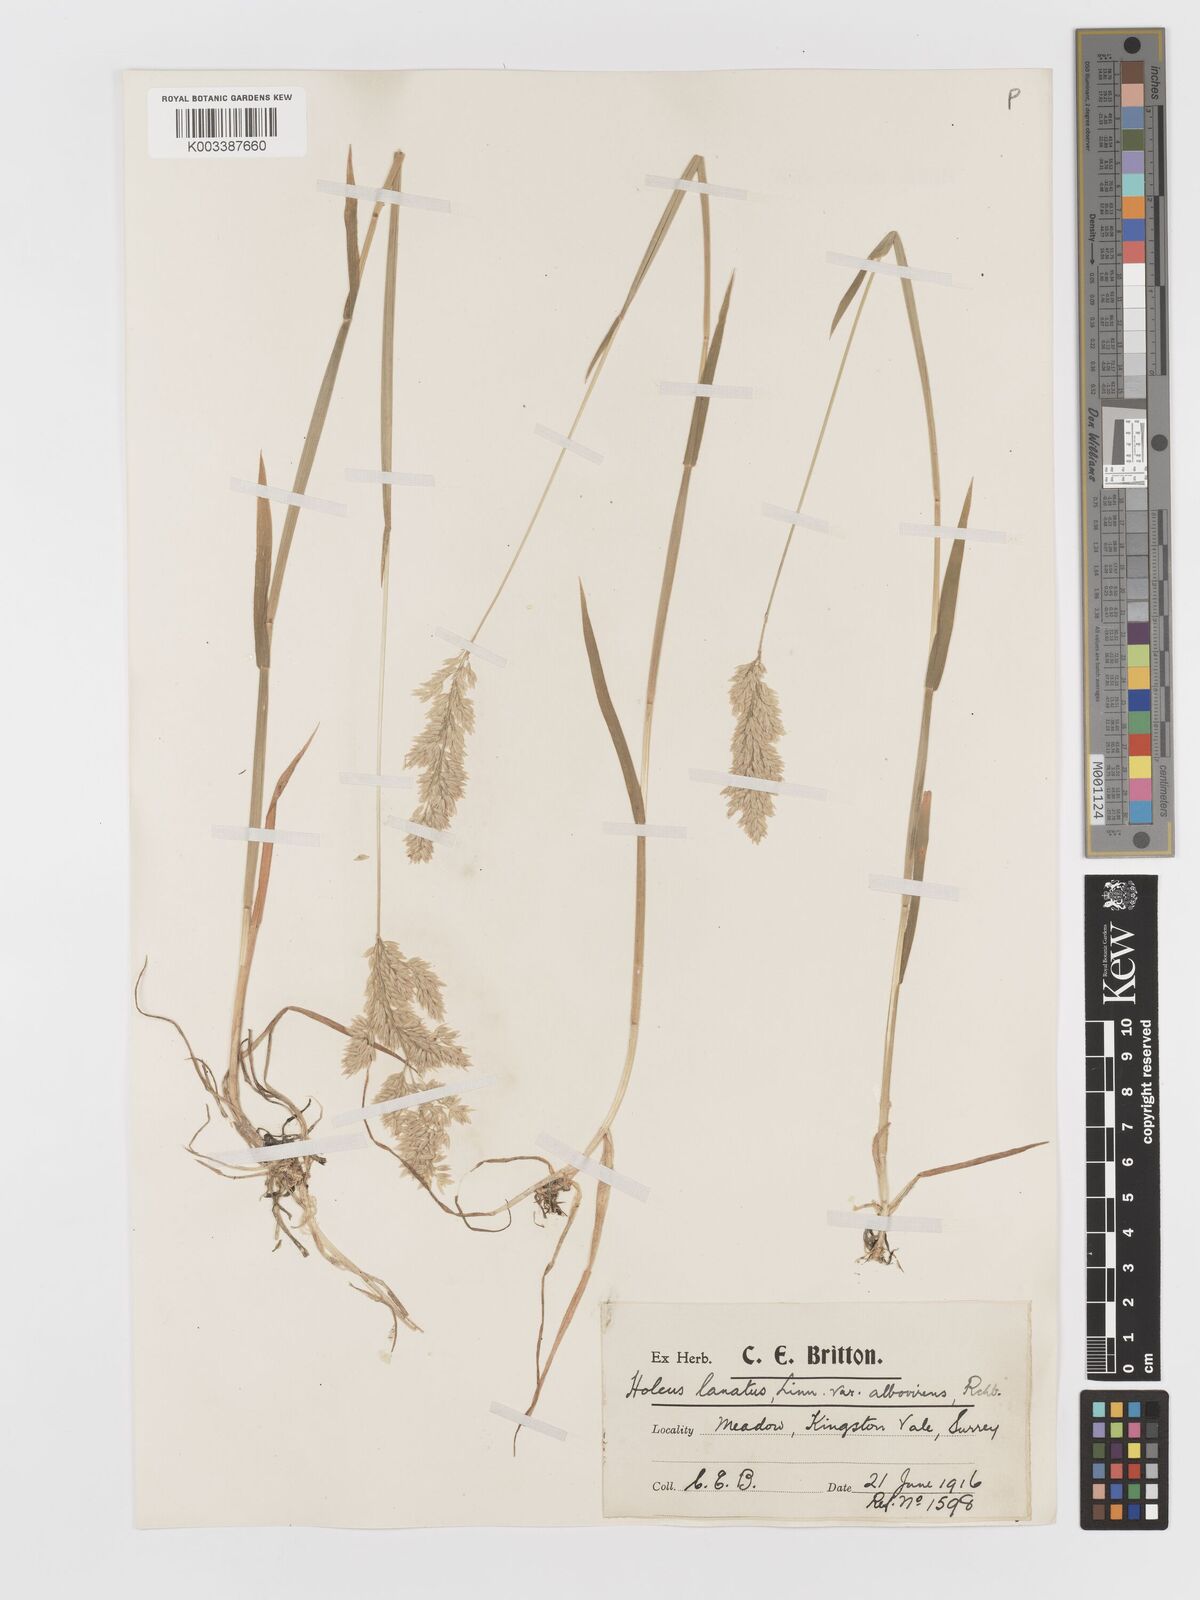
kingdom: Plantae
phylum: Tracheophyta
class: Liliopsida
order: Poales
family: Poaceae
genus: Holcus
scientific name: Holcus lanatus
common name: Yorkshire-fog
